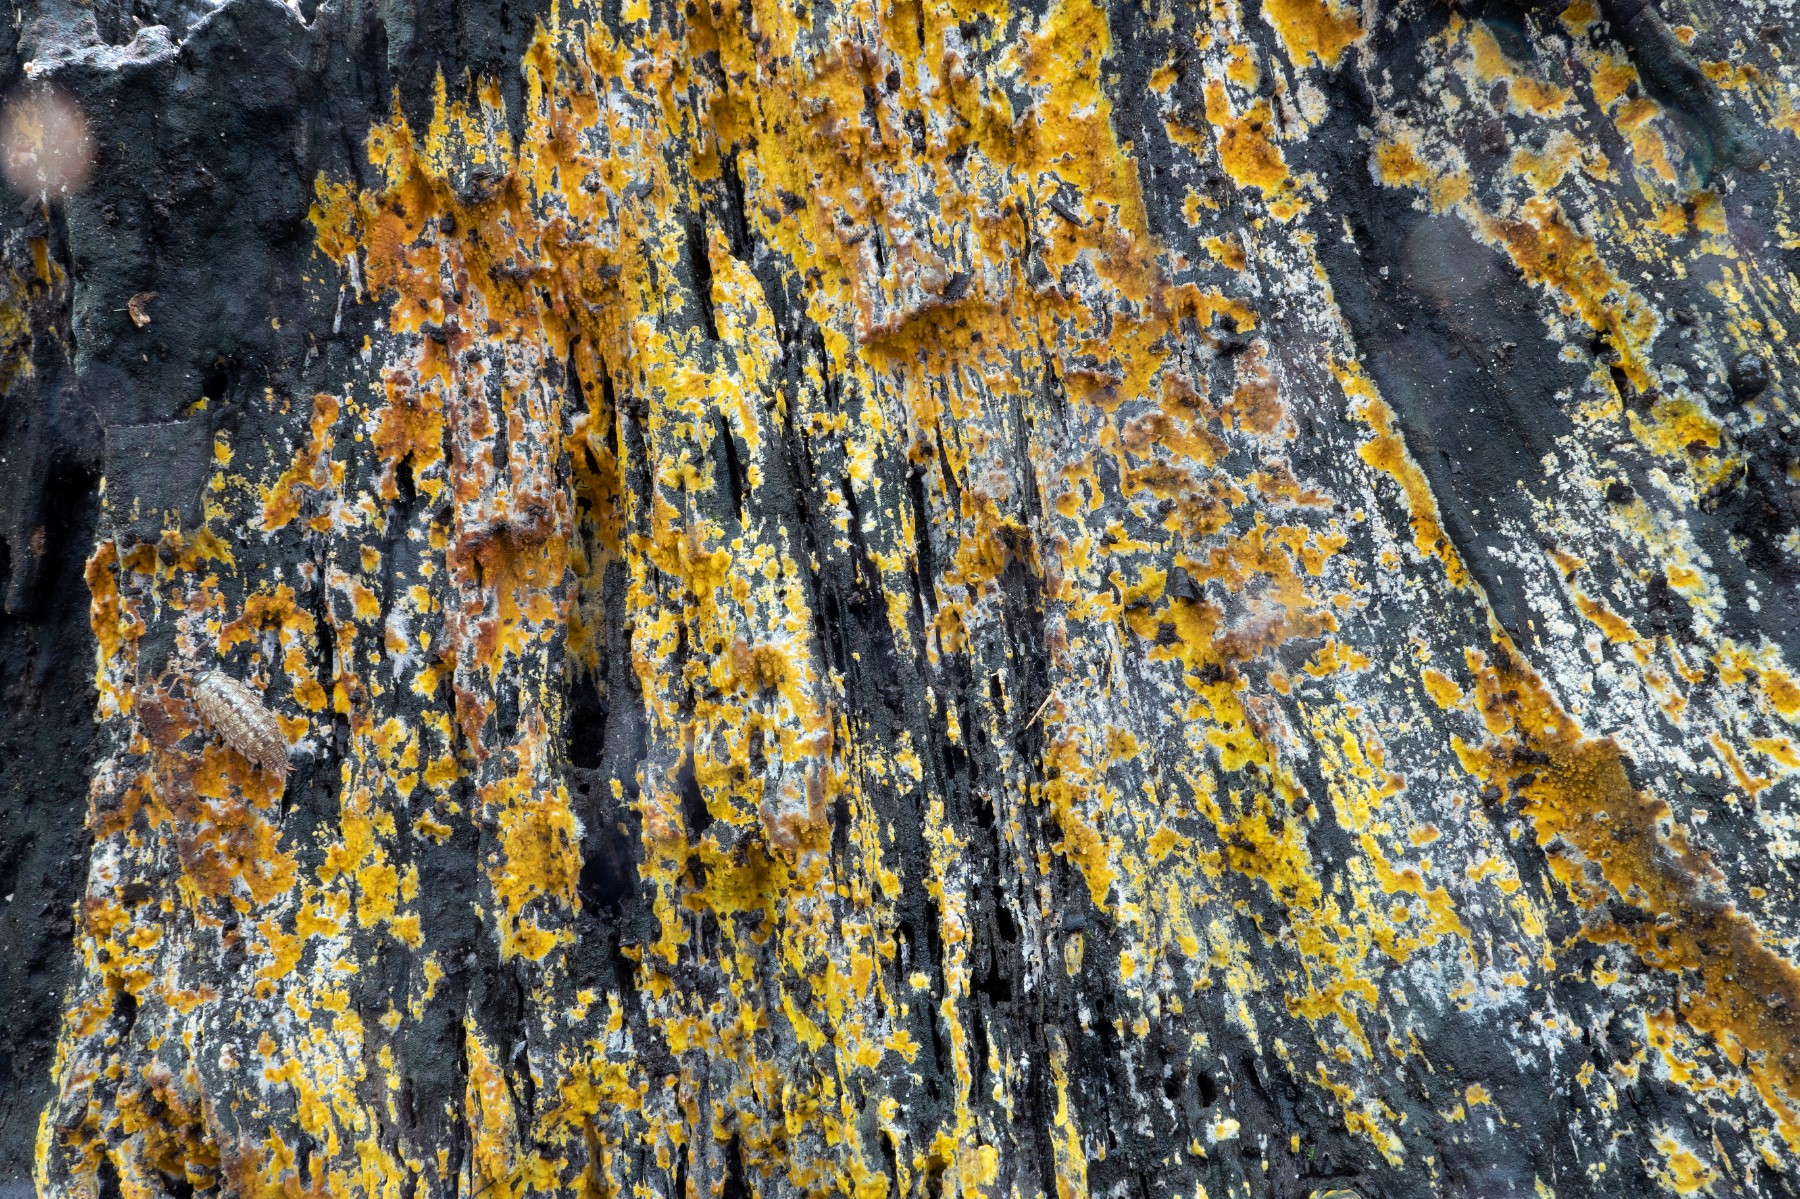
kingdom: Fungi
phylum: Basidiomycota
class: Agaricomycetes
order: Polyporales
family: Meruliaceae
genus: Phlebiodontia
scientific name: Phlebiodontia subochracea
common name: svovl-åresvamp
